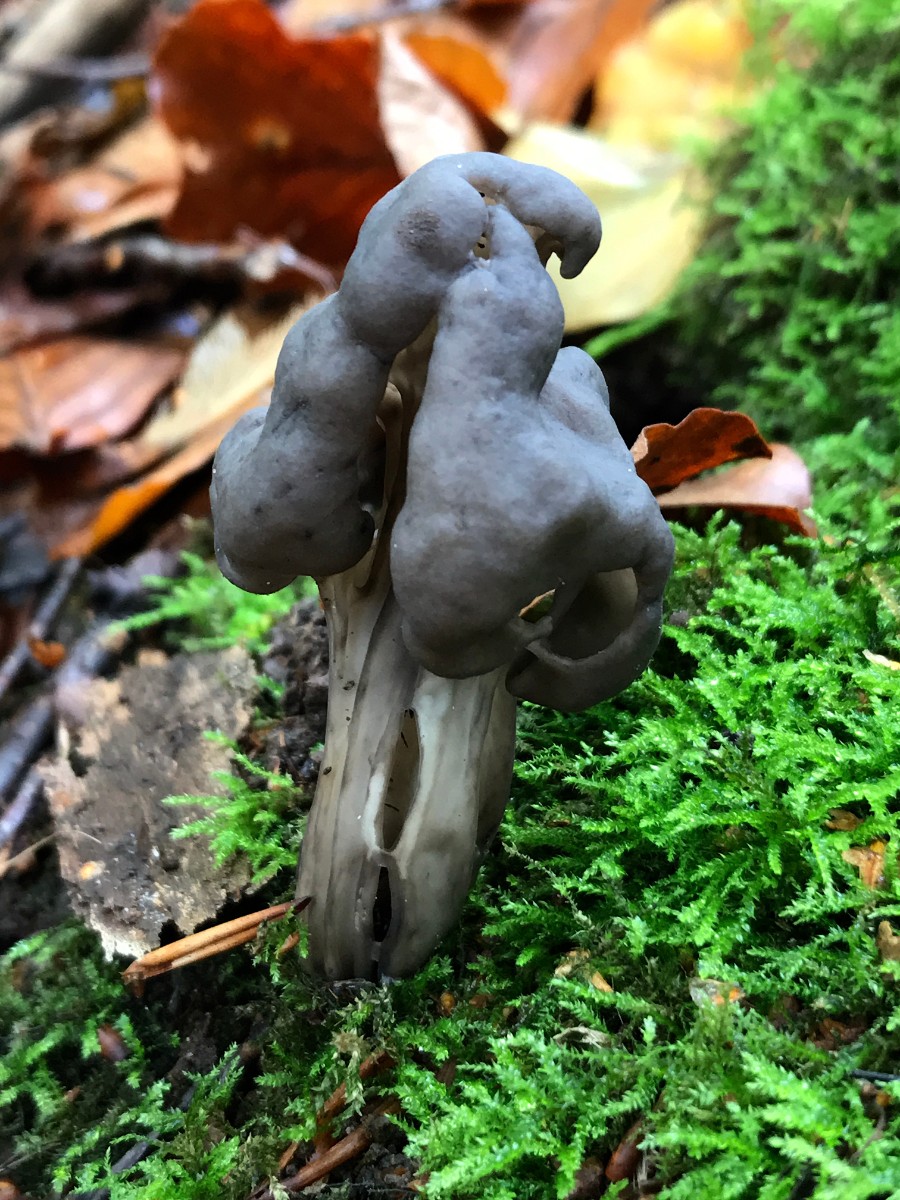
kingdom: Fungi
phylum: Ascomycota
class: Pezizomycetes
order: Pezizales
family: Helvellaceae
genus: Helvella
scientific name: Helvella lacunosa
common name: grubet foldhat
